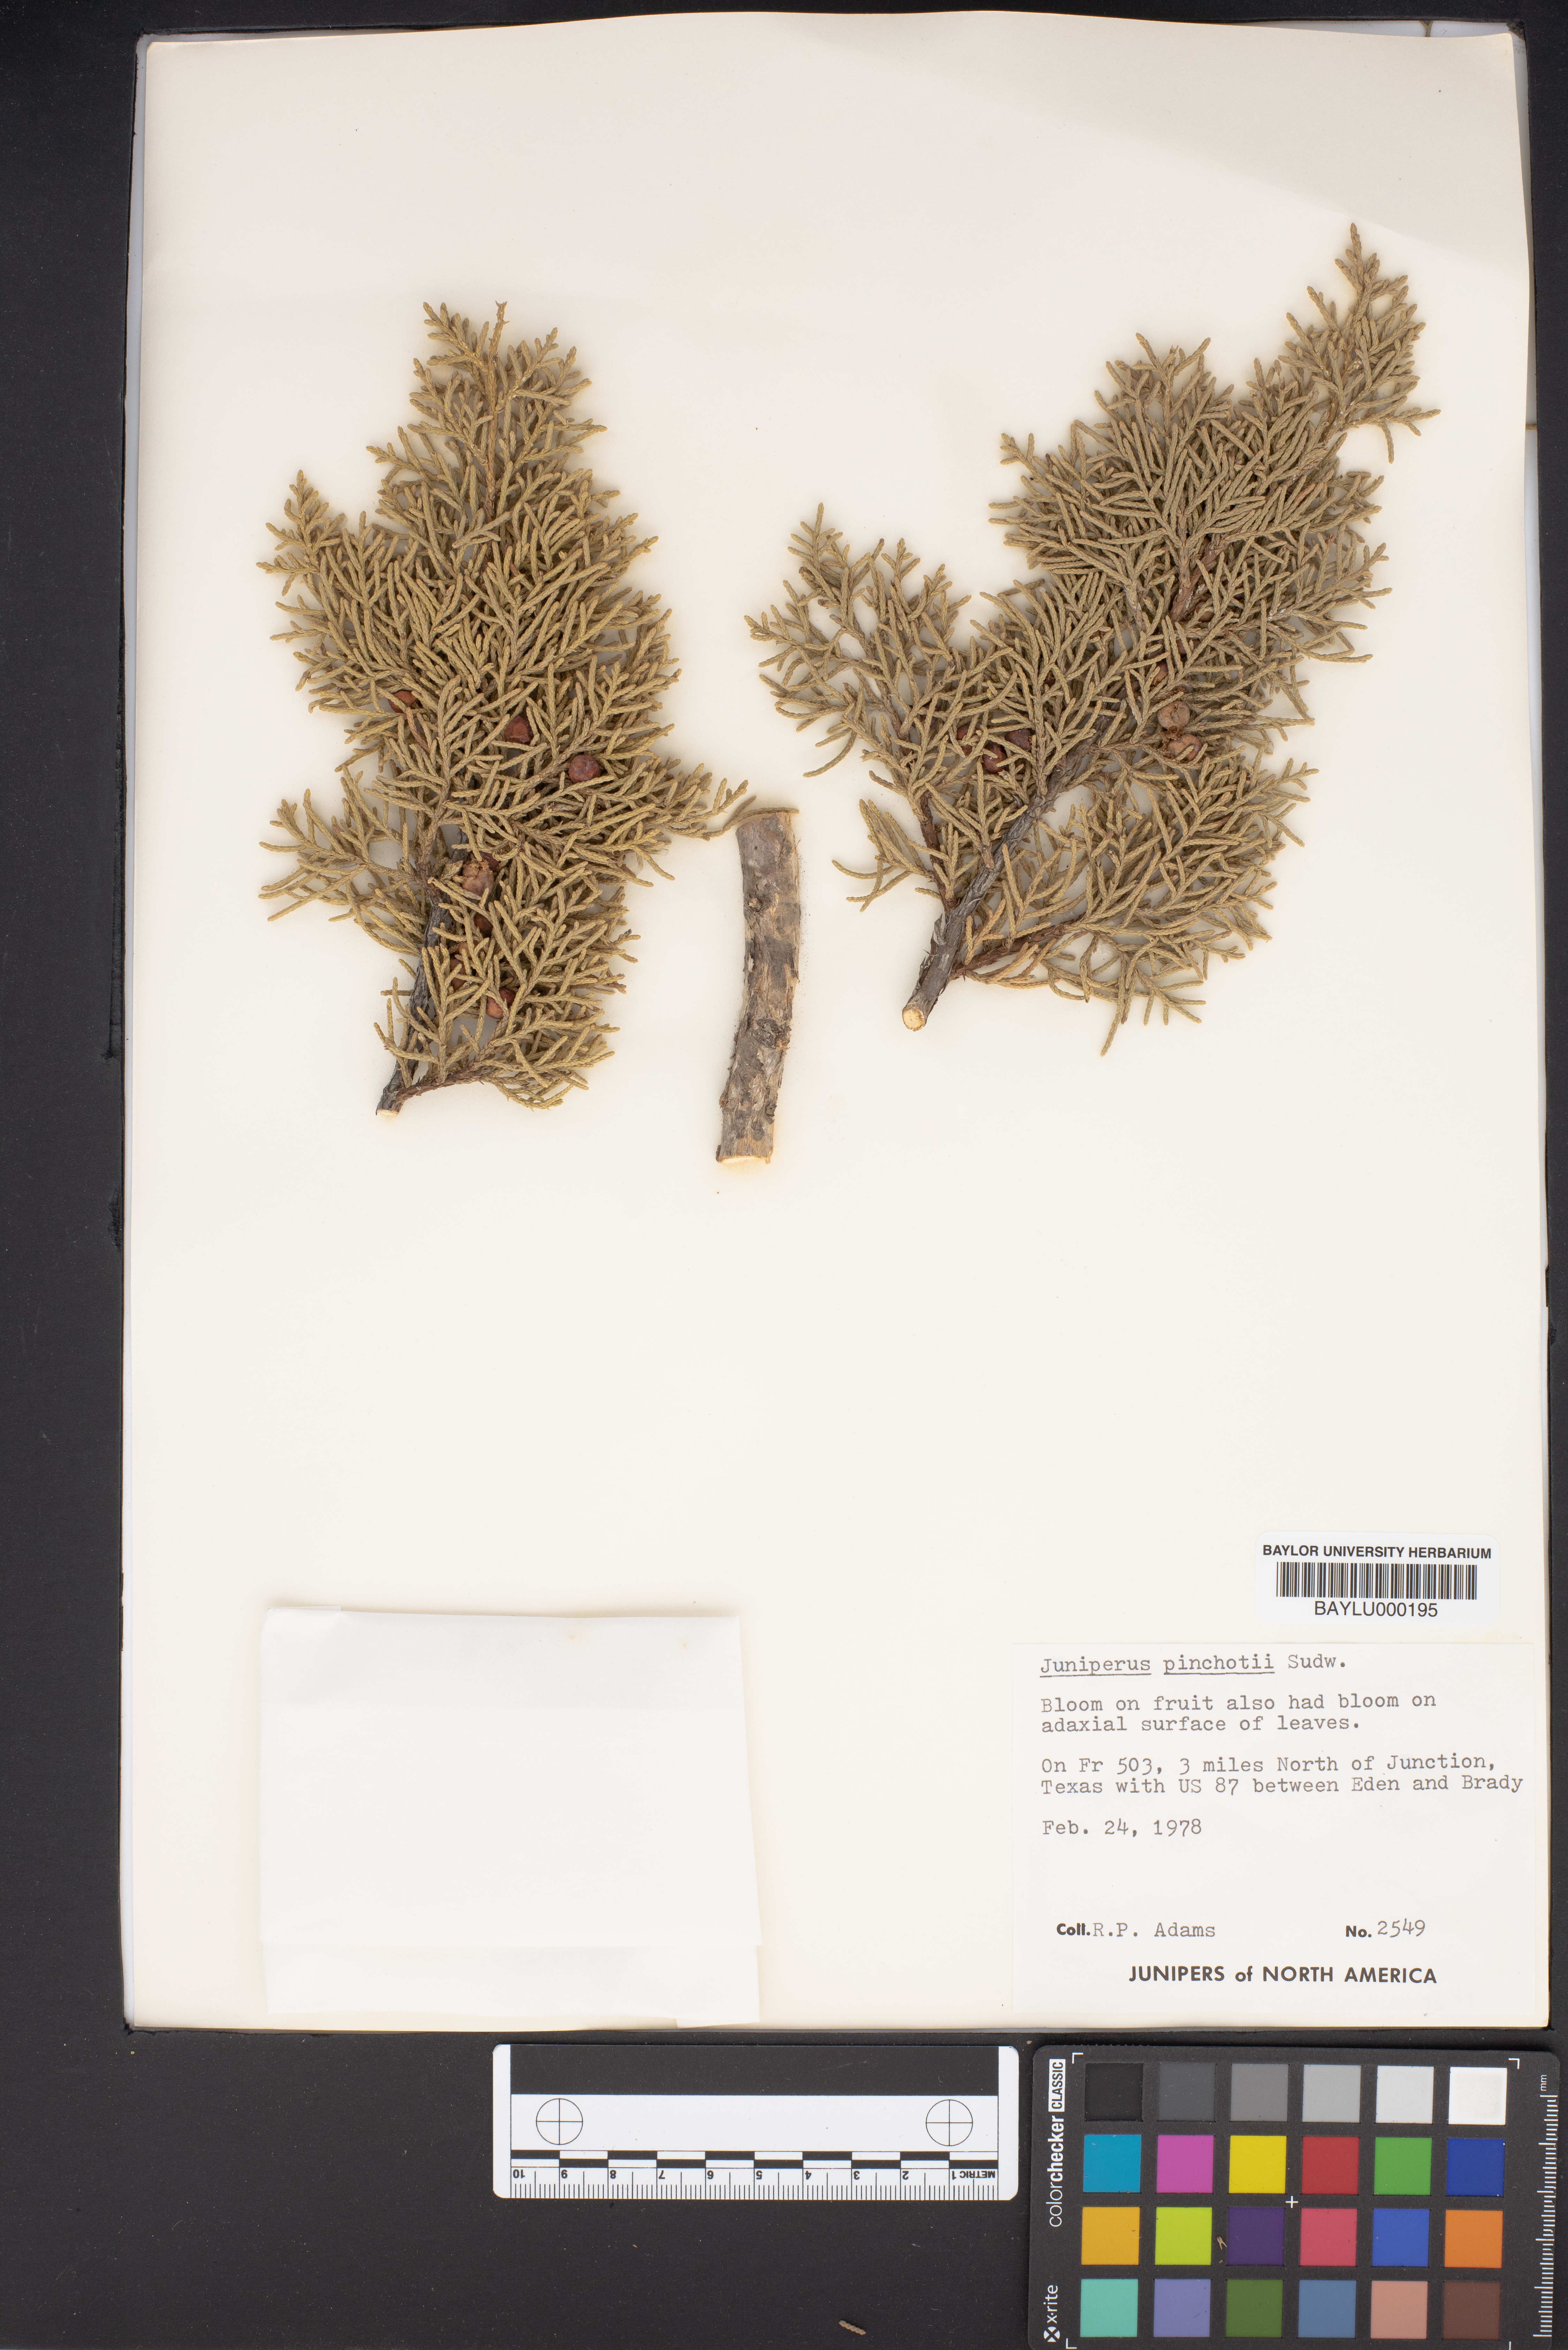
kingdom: Plantae
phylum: Tracheophyta
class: Pinopsida
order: Pinales
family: Cupressaceae
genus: Juniperus
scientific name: Juniperus pinchotii
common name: Pinchot juniper
